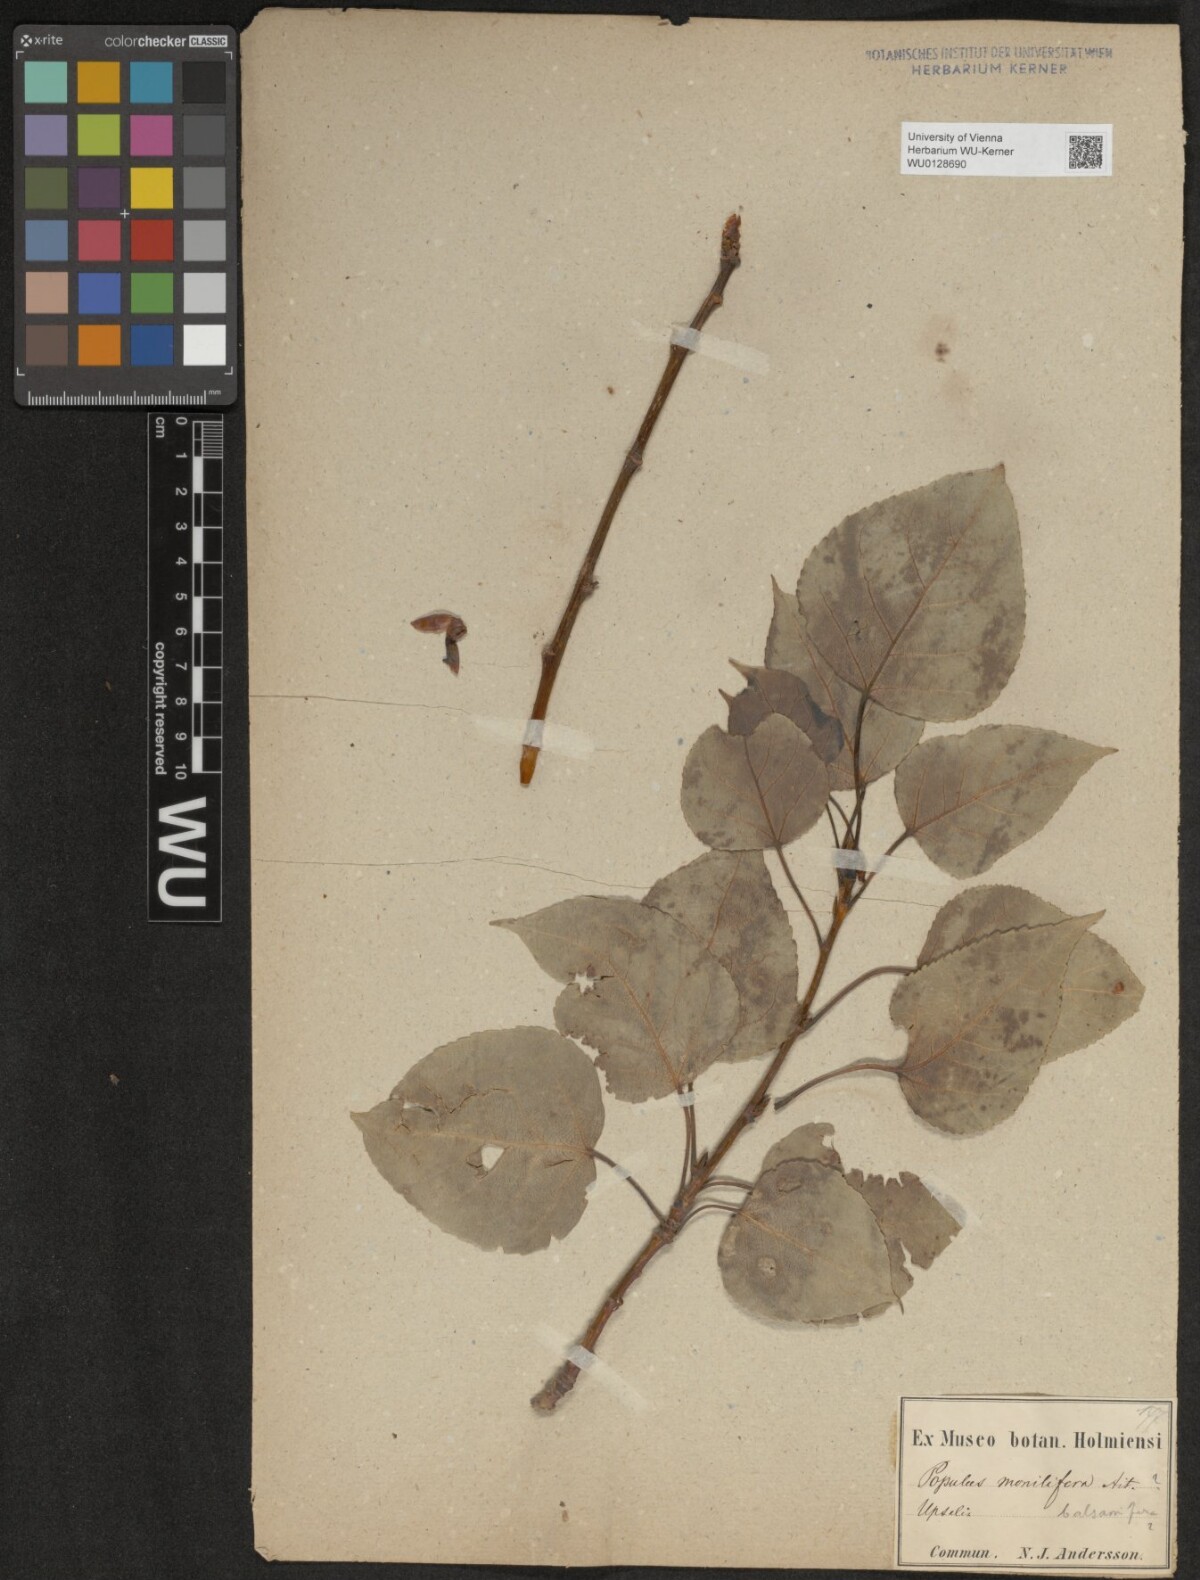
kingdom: Plantae
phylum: Tracheophyta
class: Magnoliopsida
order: Malpighiales
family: Salicaceae
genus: Populus
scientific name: Populus balsamifera
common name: Balsam poplar
